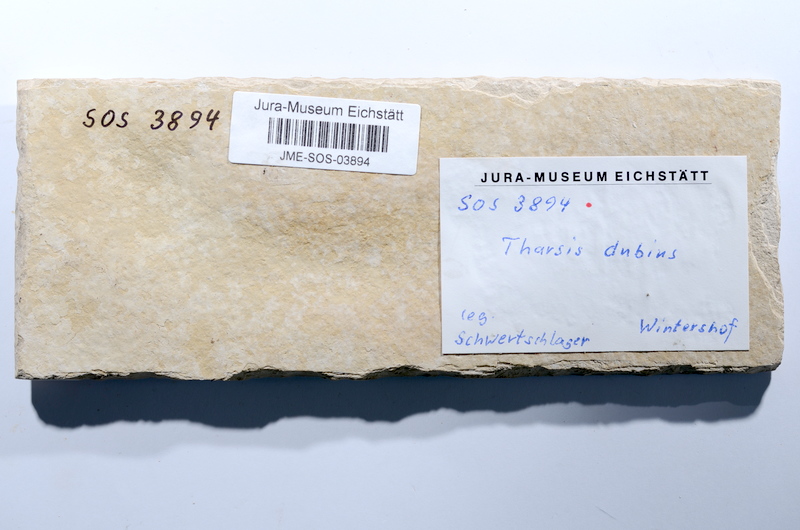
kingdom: Animalia
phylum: Chordata
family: Ascalaboidae
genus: Tharsis
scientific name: Tharsis dubius
